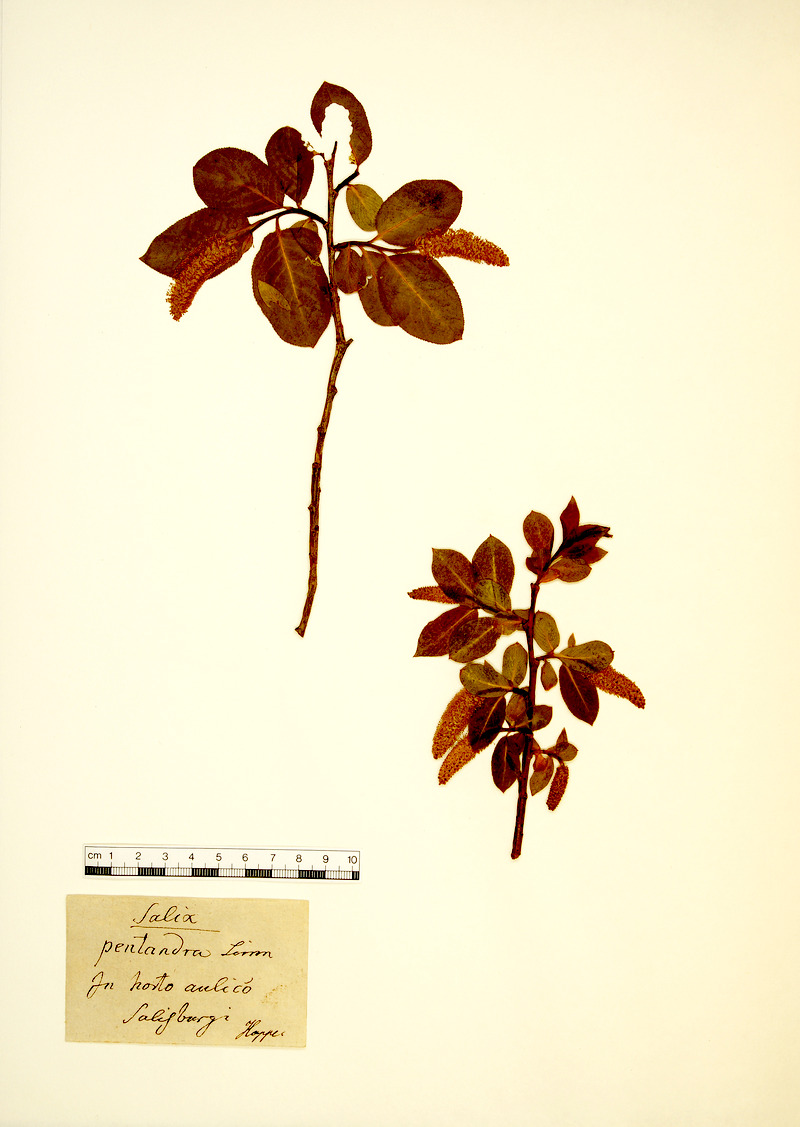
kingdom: Plantae
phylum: Tracheophyta
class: Magnoliopsida
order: Malpighiales
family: Salicaceae
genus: Salix
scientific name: Salix pentandra
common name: Bay willow
